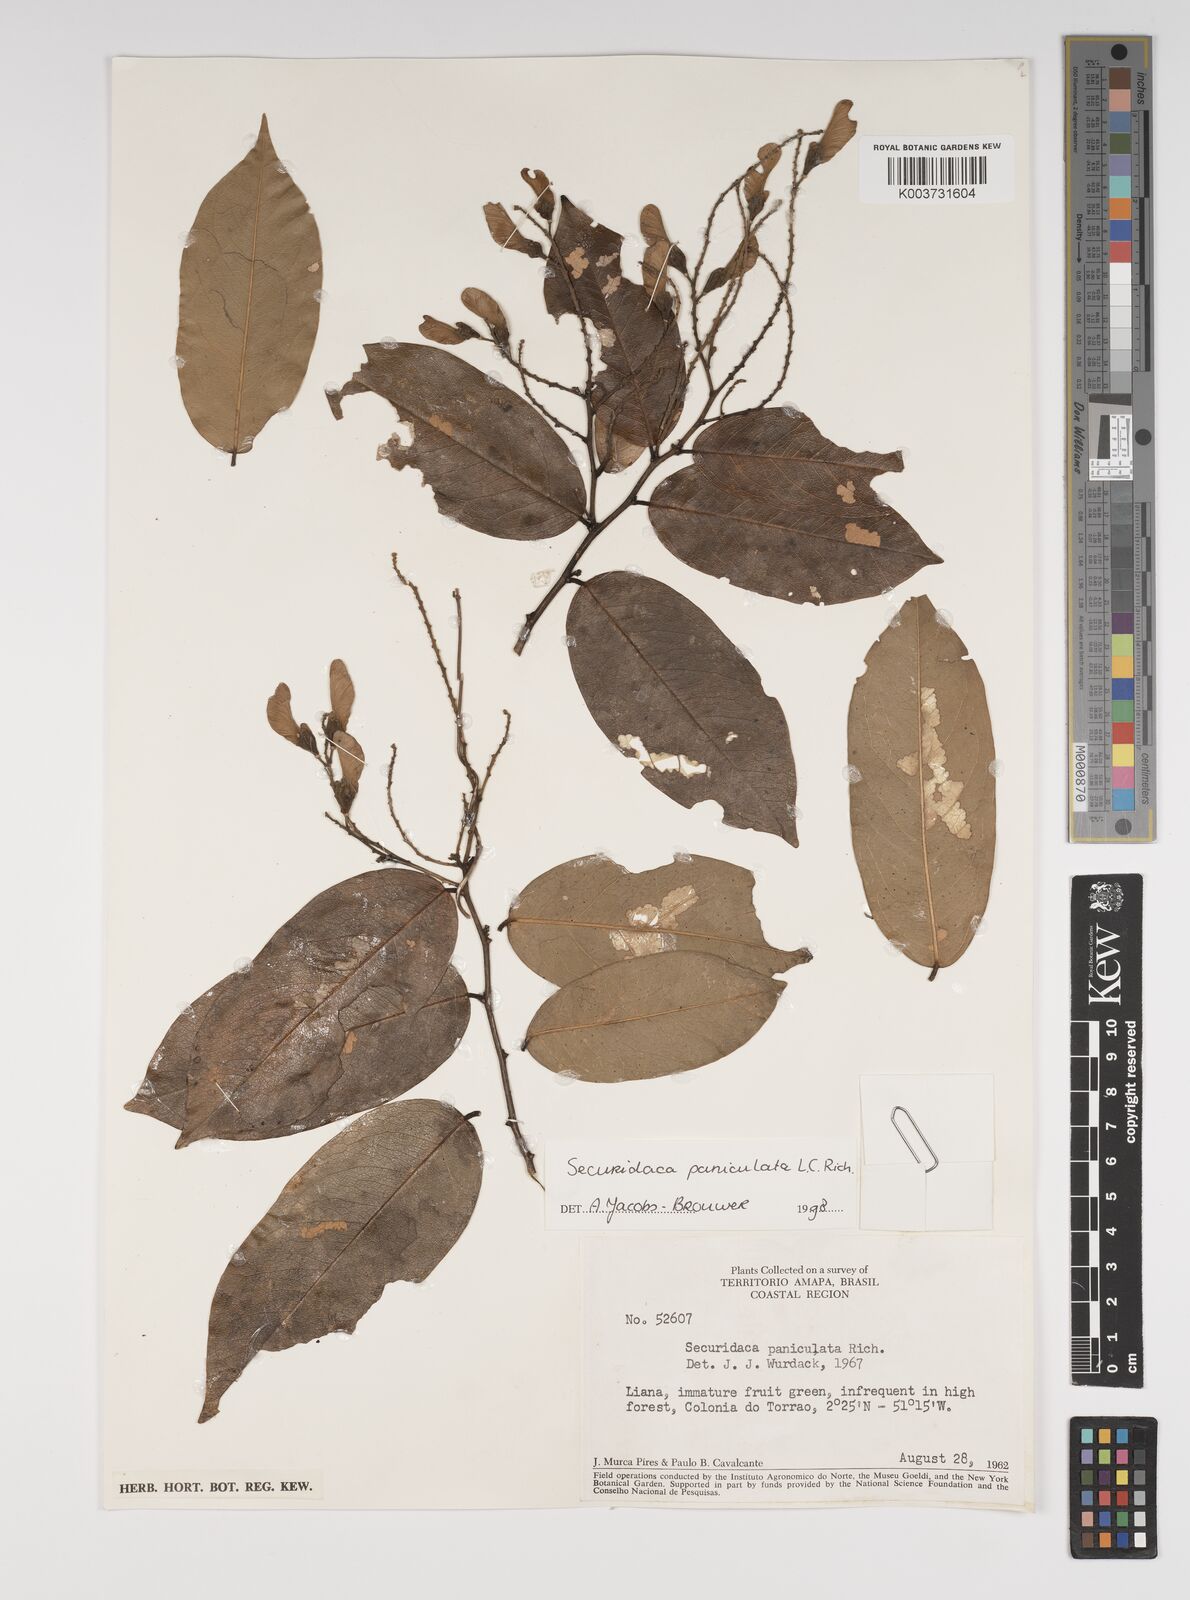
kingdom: Plantae
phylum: Tracheophyta
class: Magnoliopsida
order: Fabales
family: Polygalaceae
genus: Securidaca
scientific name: Securidaca paniculata
